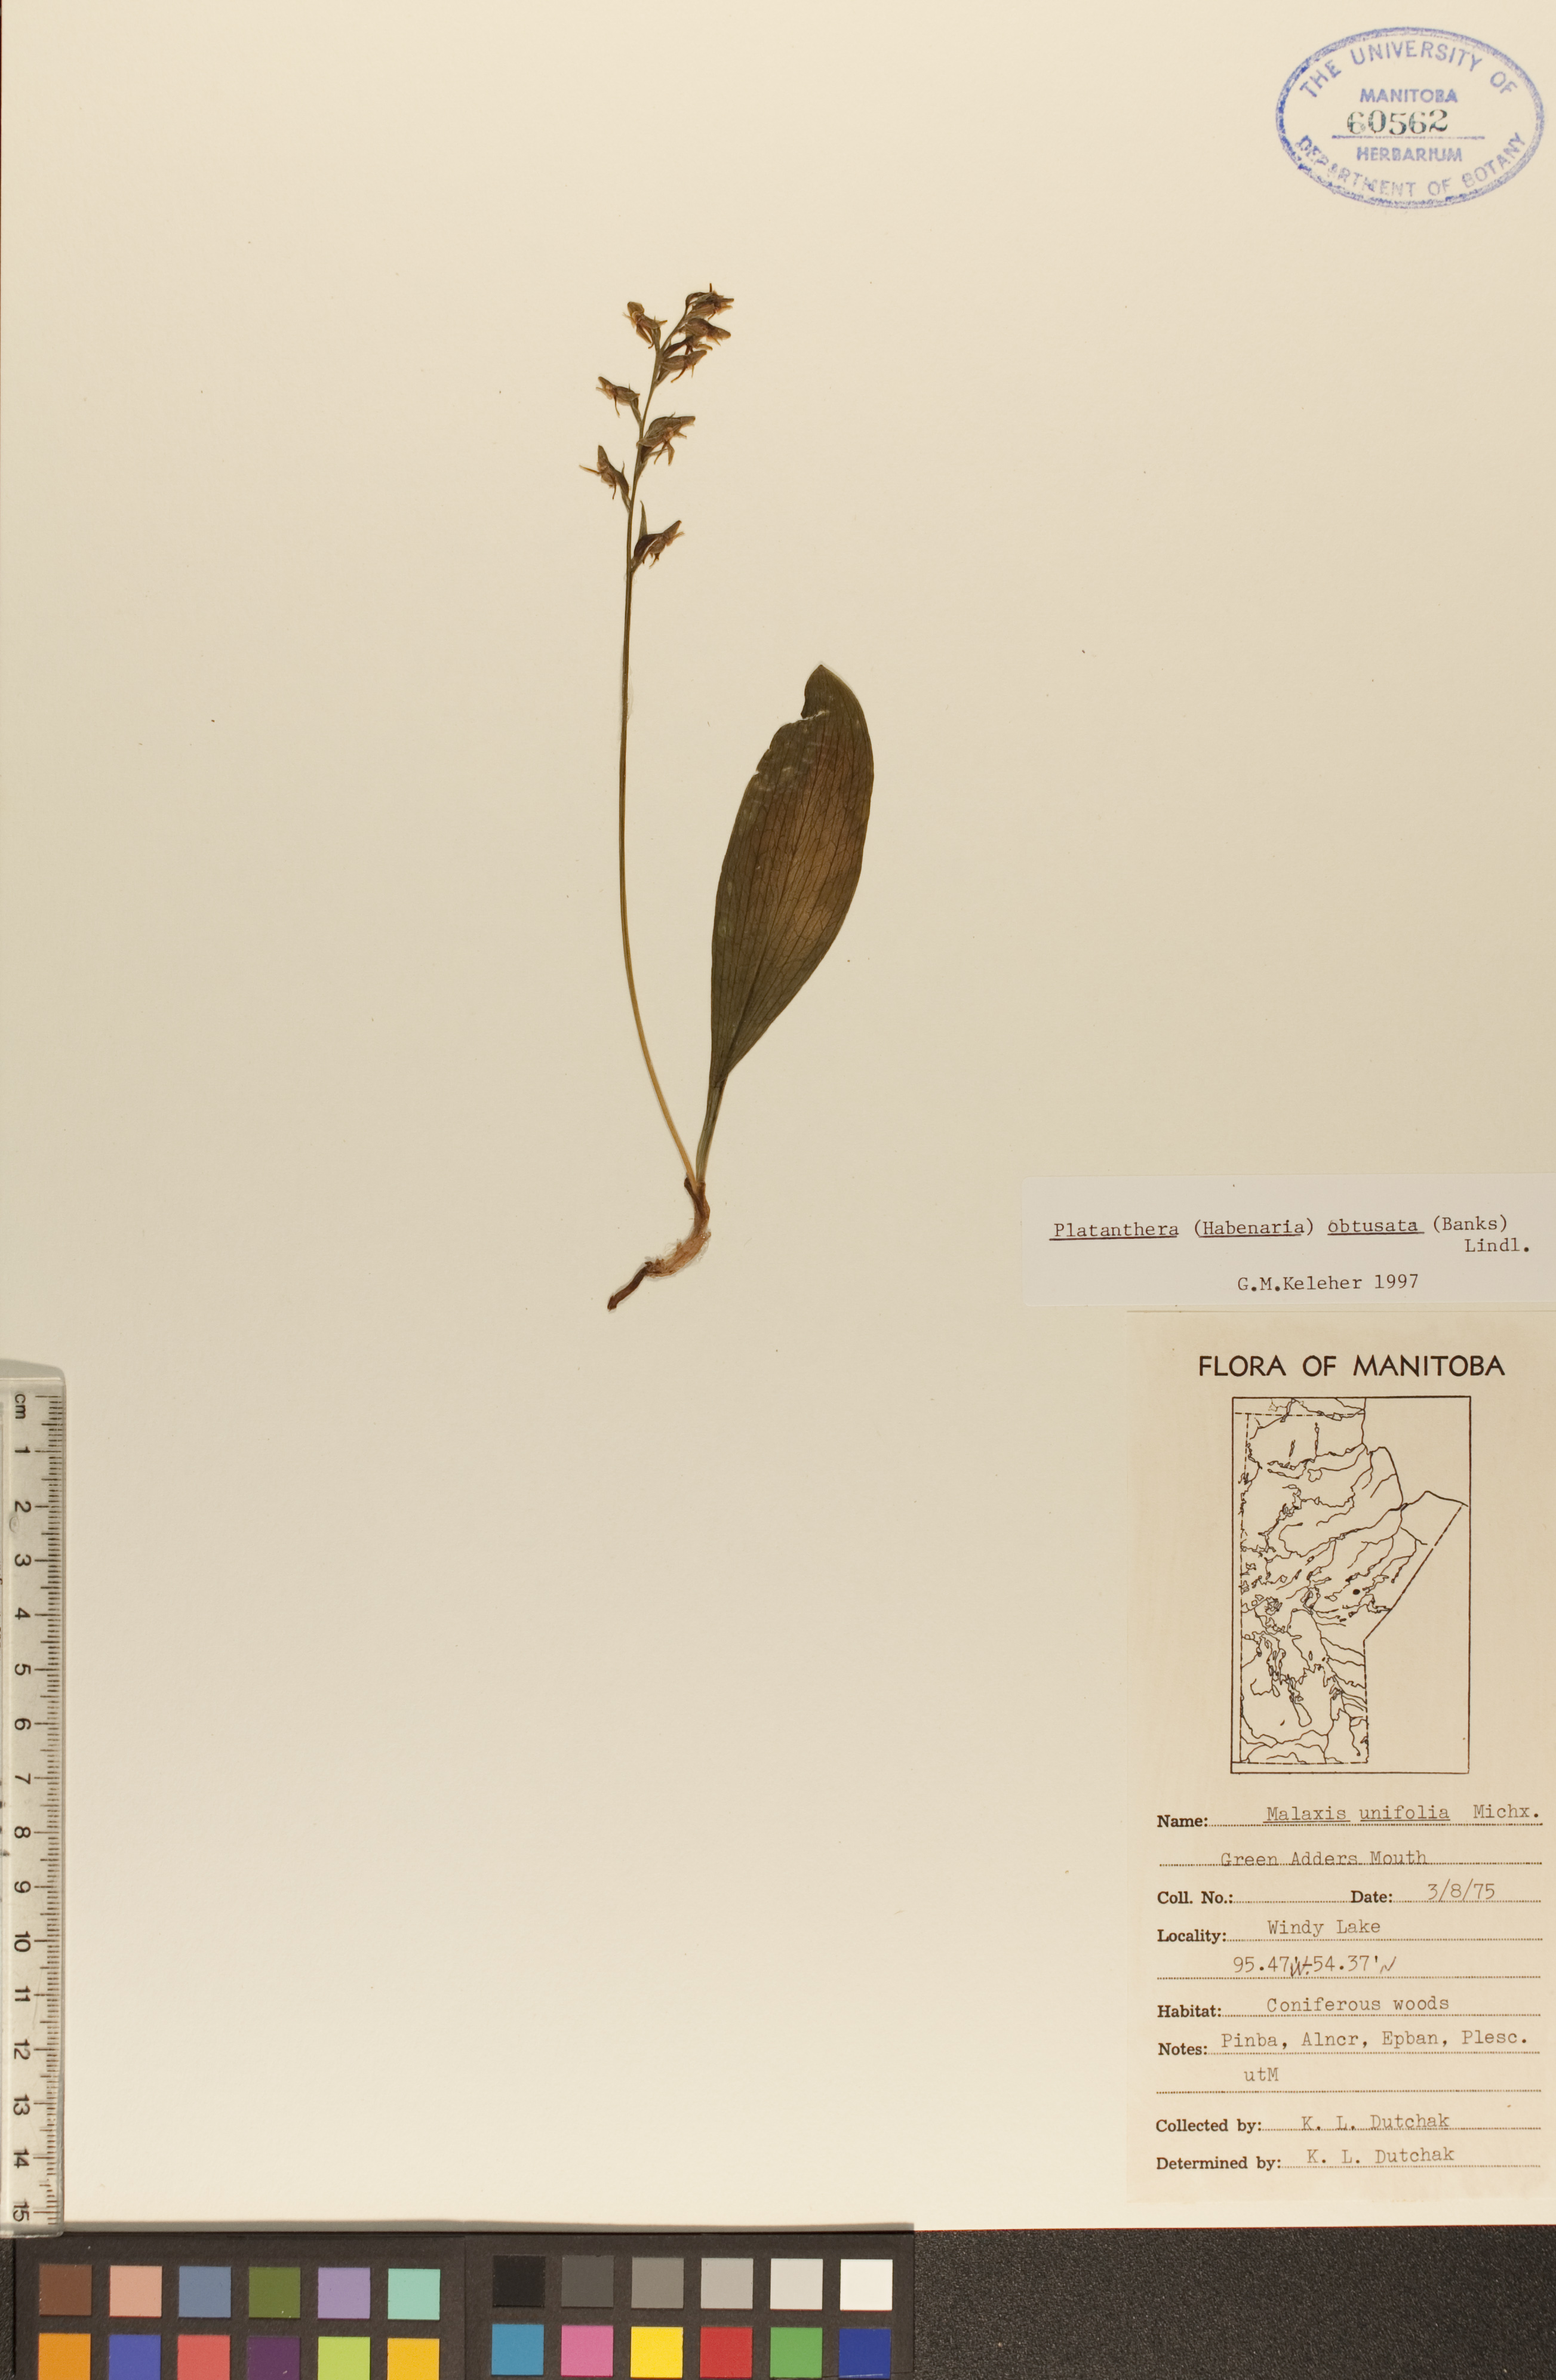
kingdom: Plantae
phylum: Tracheophyta
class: Liliopsida
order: Asparagales
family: Orchidaceae
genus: Platanthera
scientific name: Platanthera obtusata
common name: Blunt bog orchid
